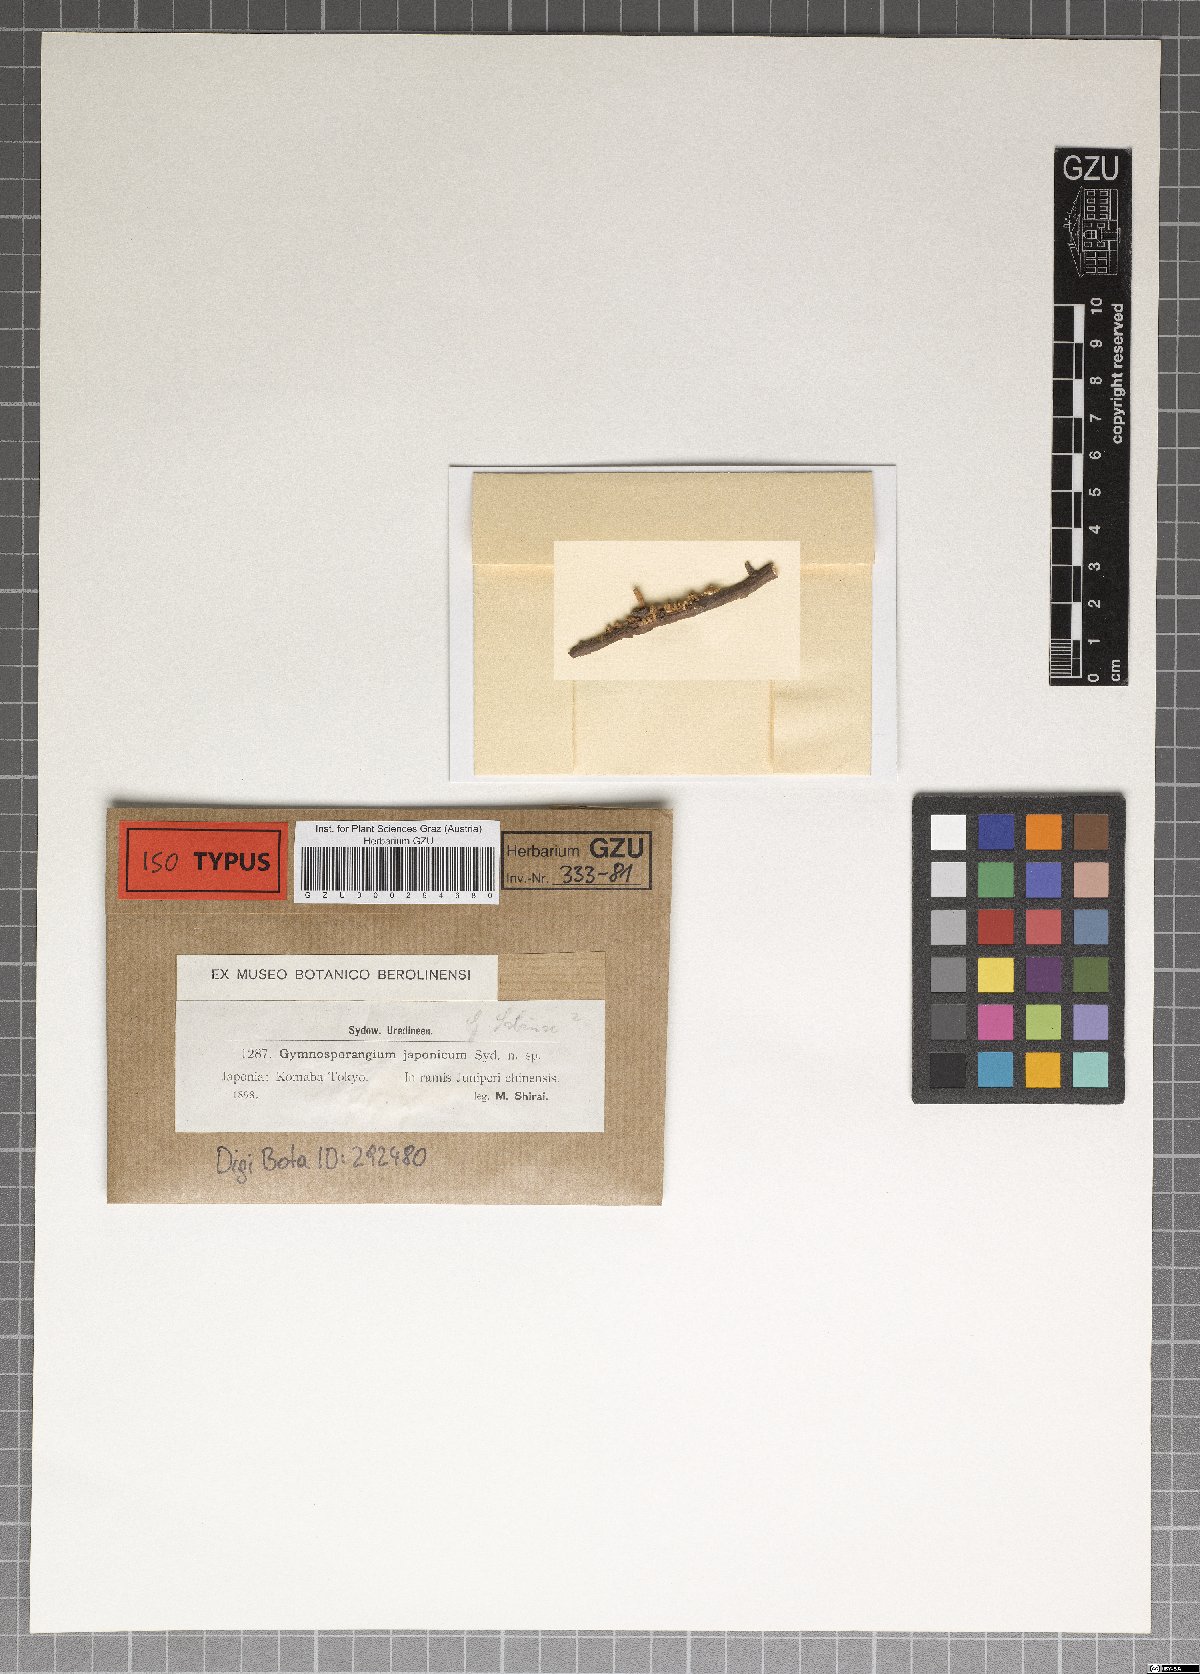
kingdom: Fungi
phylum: Basidiomycota
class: Pucciniomycetes
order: Pucciniales
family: Gymnosporangiaceae
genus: Gymnosporangium
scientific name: Gymnosporangium asiaticum
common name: Japanese pear rust
